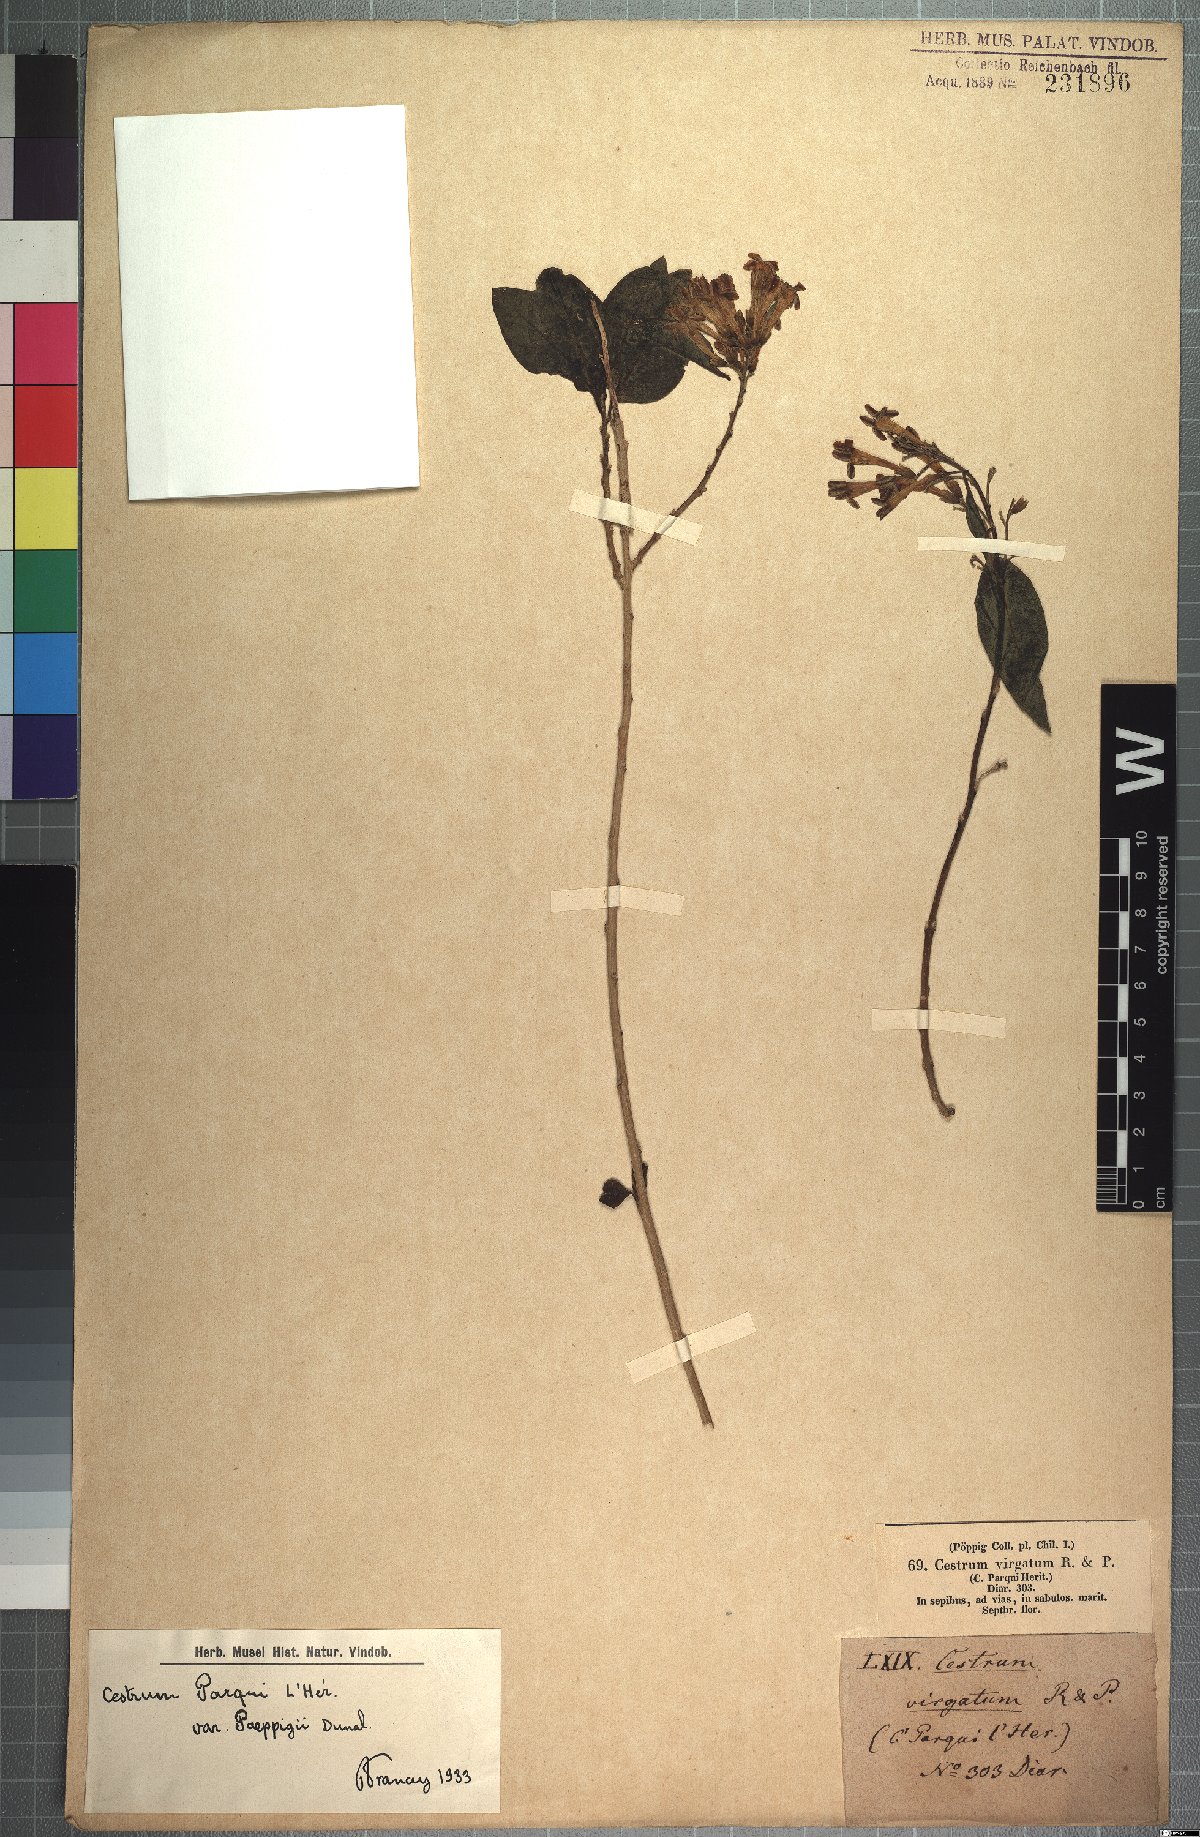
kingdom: Plantae
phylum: Tracheophyta
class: Magnoliopsida
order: Solanales
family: Solanaceae
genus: Cestrum
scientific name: Cestrum parqui
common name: Chilean cestrum
